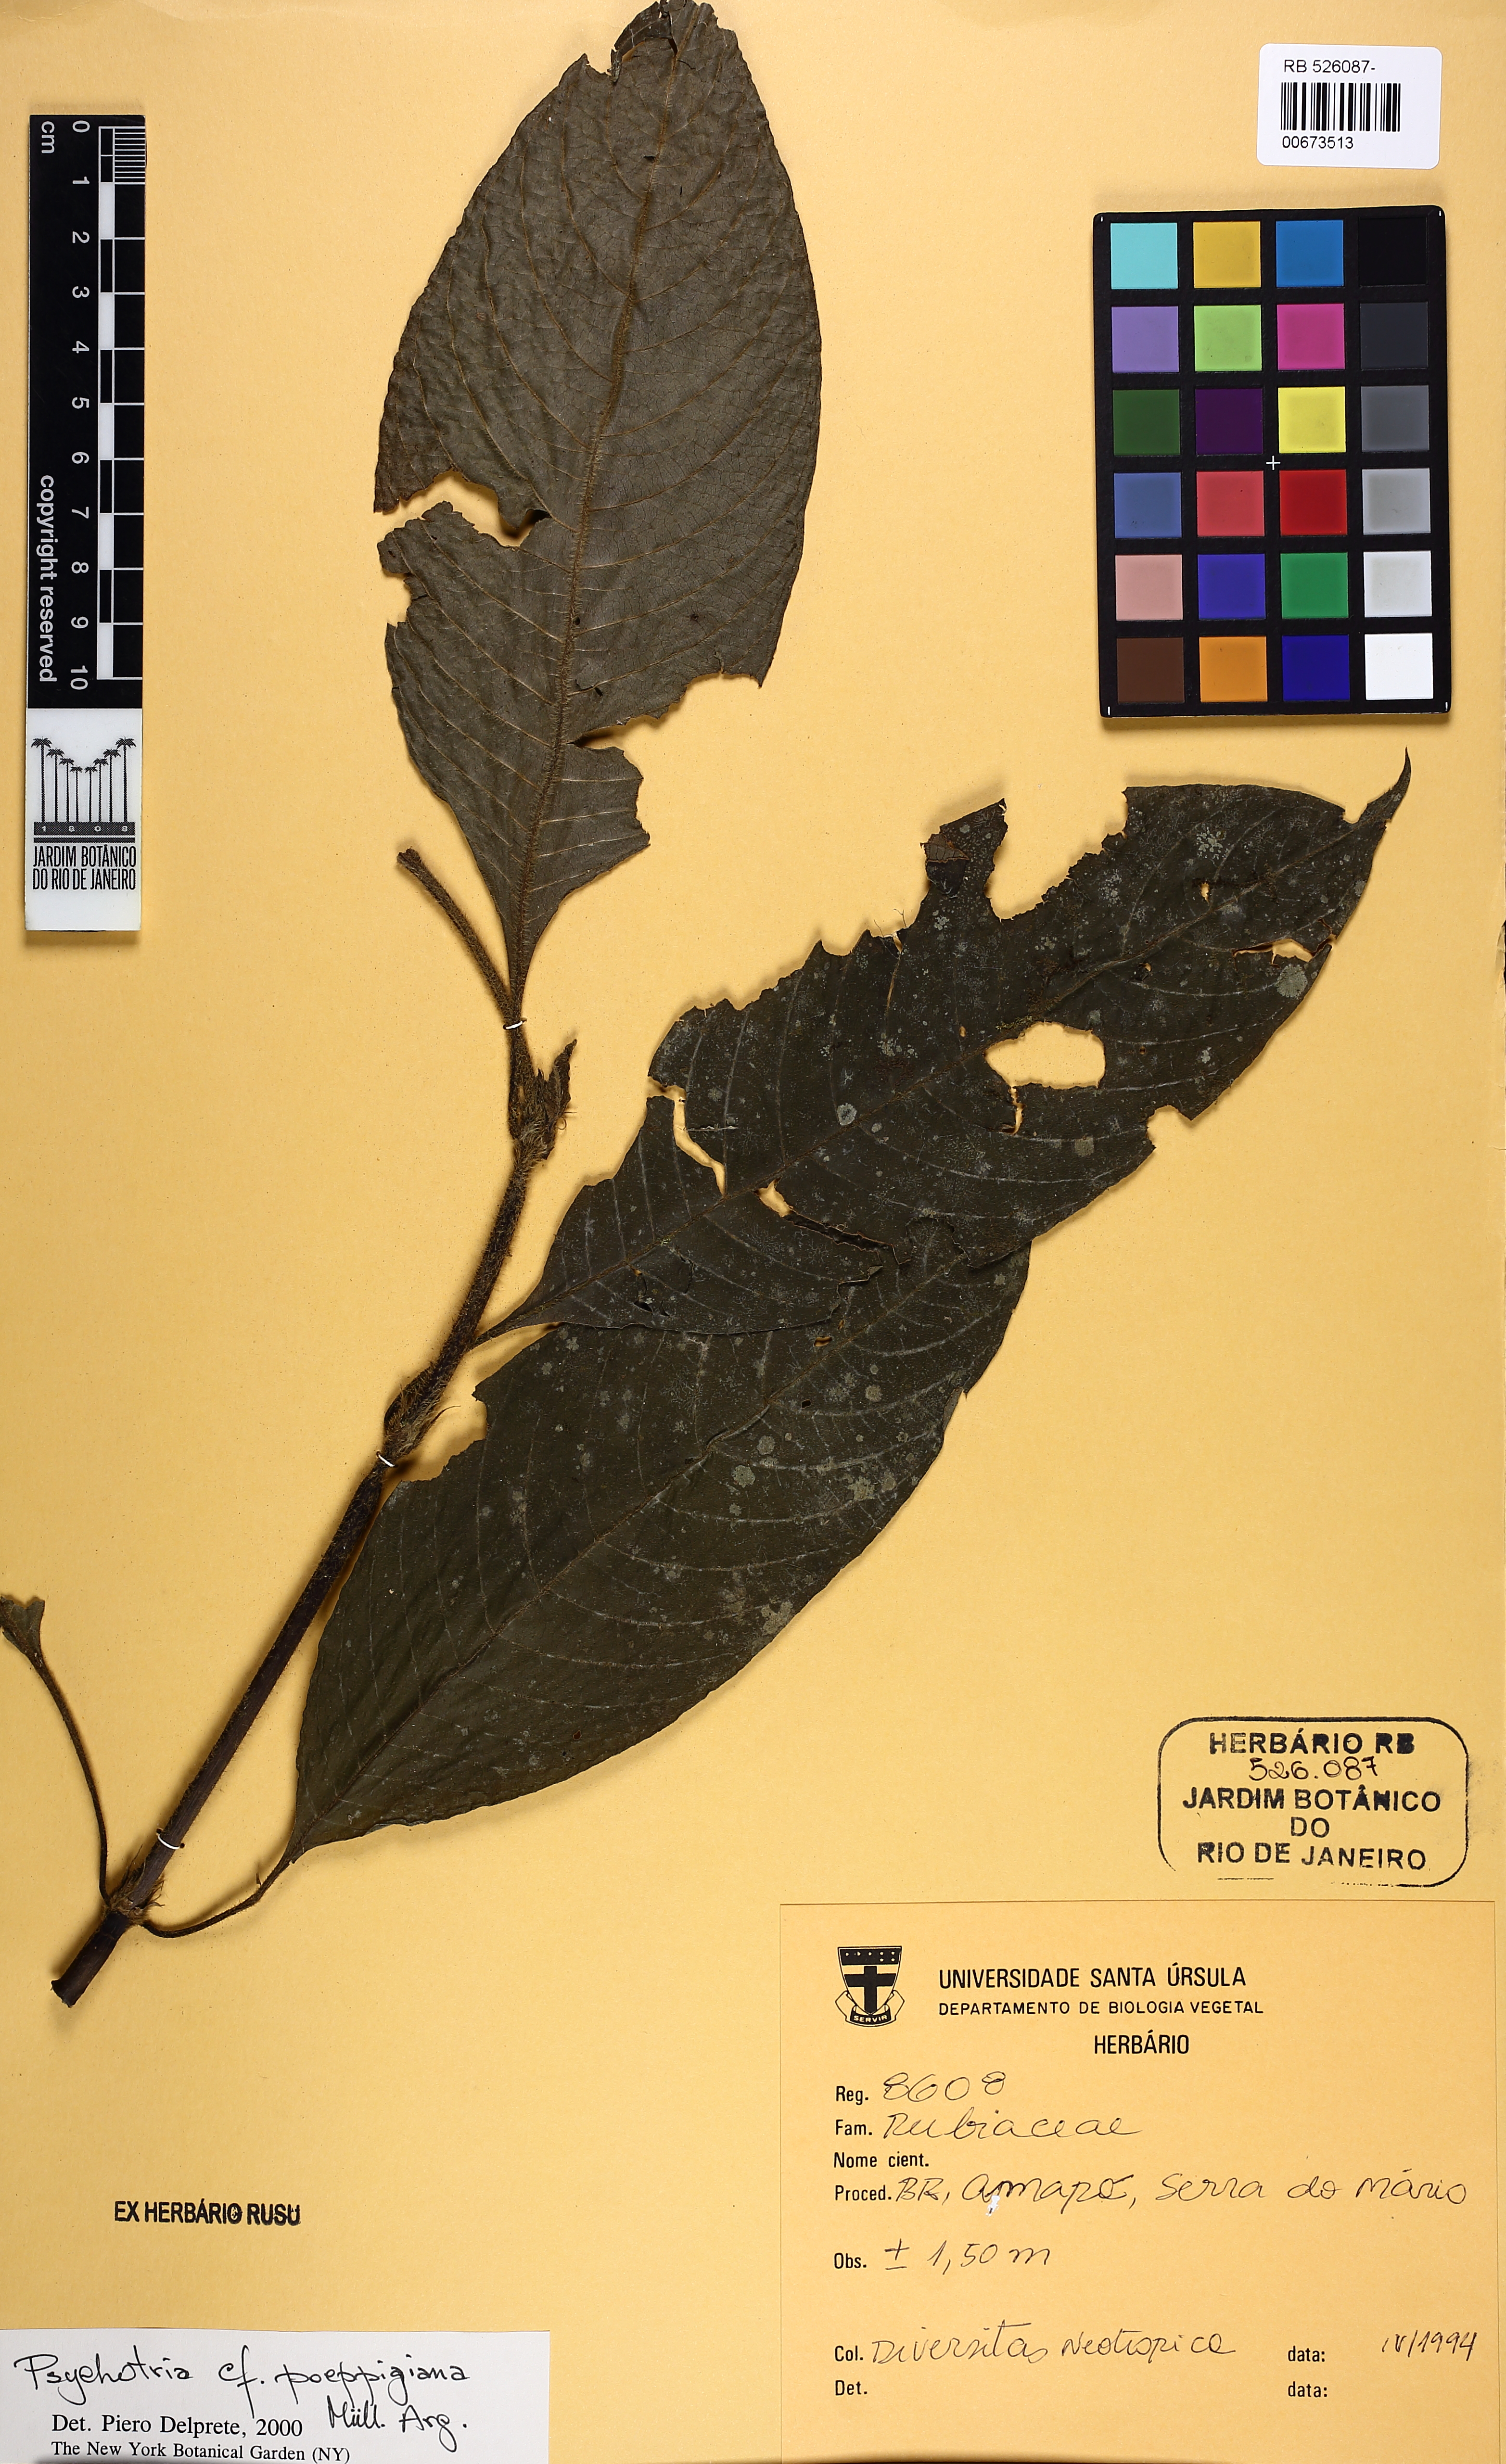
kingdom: Plantae
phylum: Tracheophyta
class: Magnoliopsida
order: Gentianales
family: Rubiaceae
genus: Palicourea
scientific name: Palicourea tomentosa
